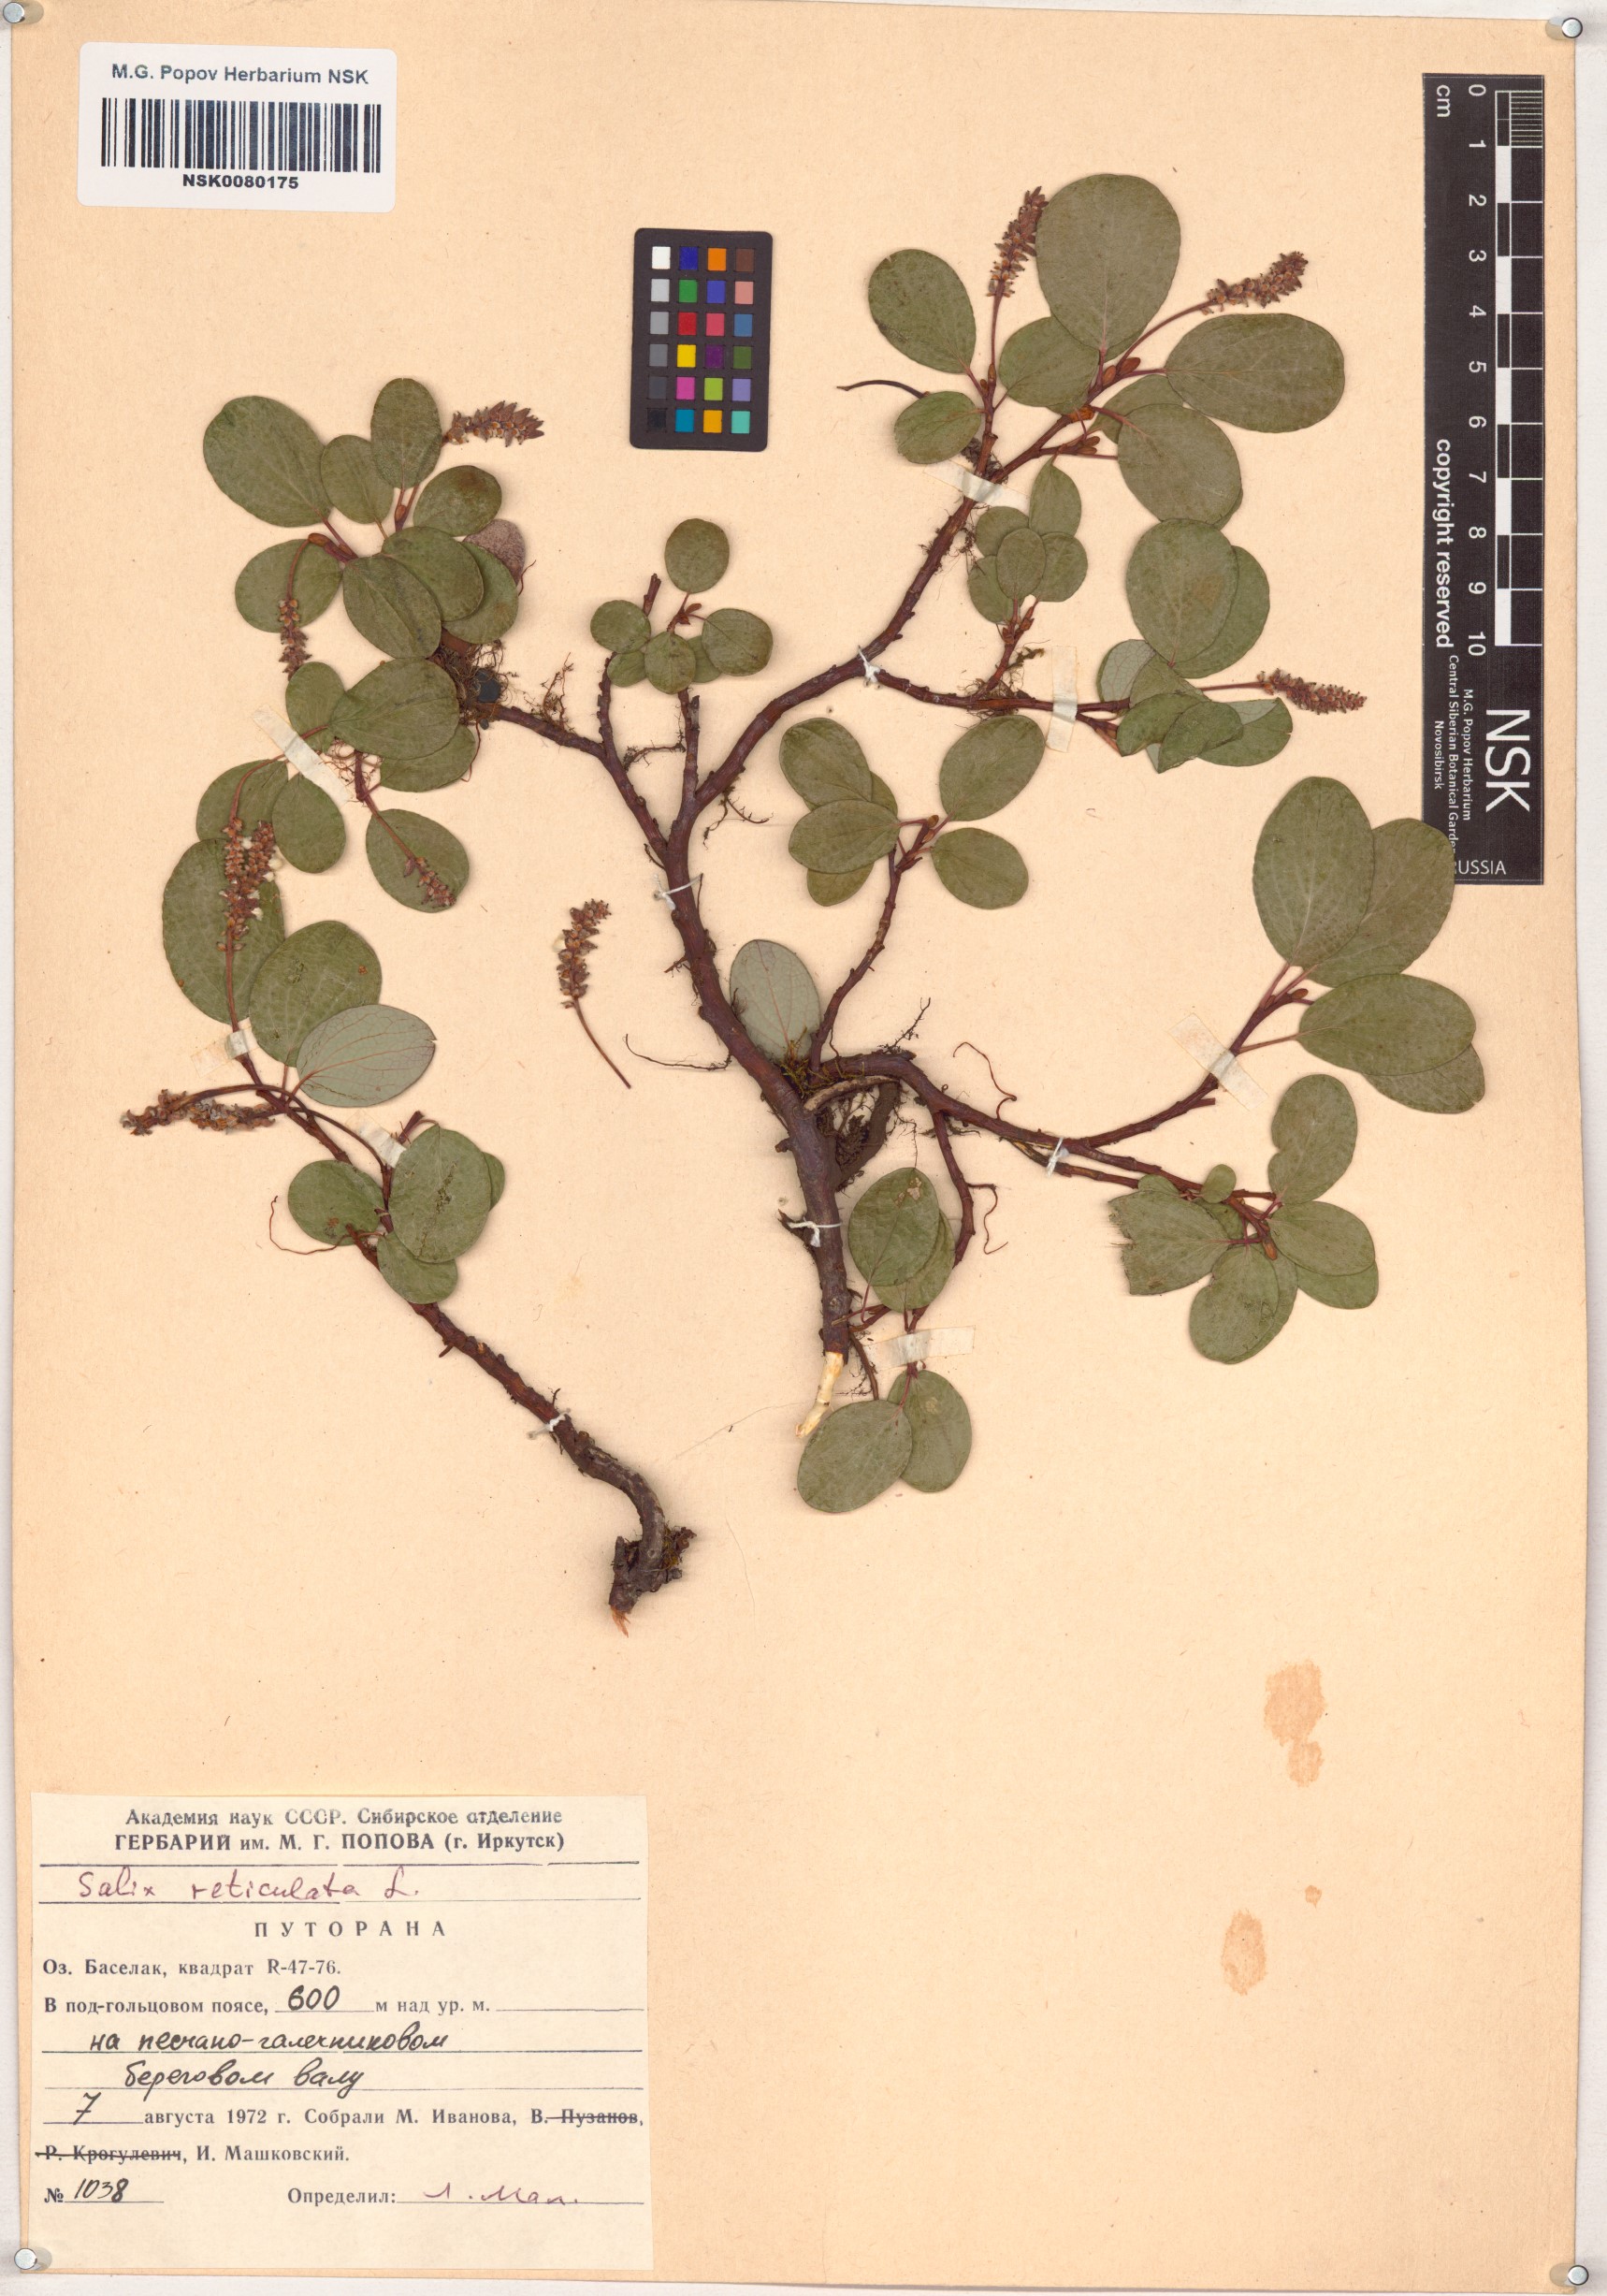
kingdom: Plantae
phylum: Tracheophyta
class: Magnoliopsida
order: Malpighiales
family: Salicaceae
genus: Salix
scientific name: Salix reticulata
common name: Net-leaved willow
